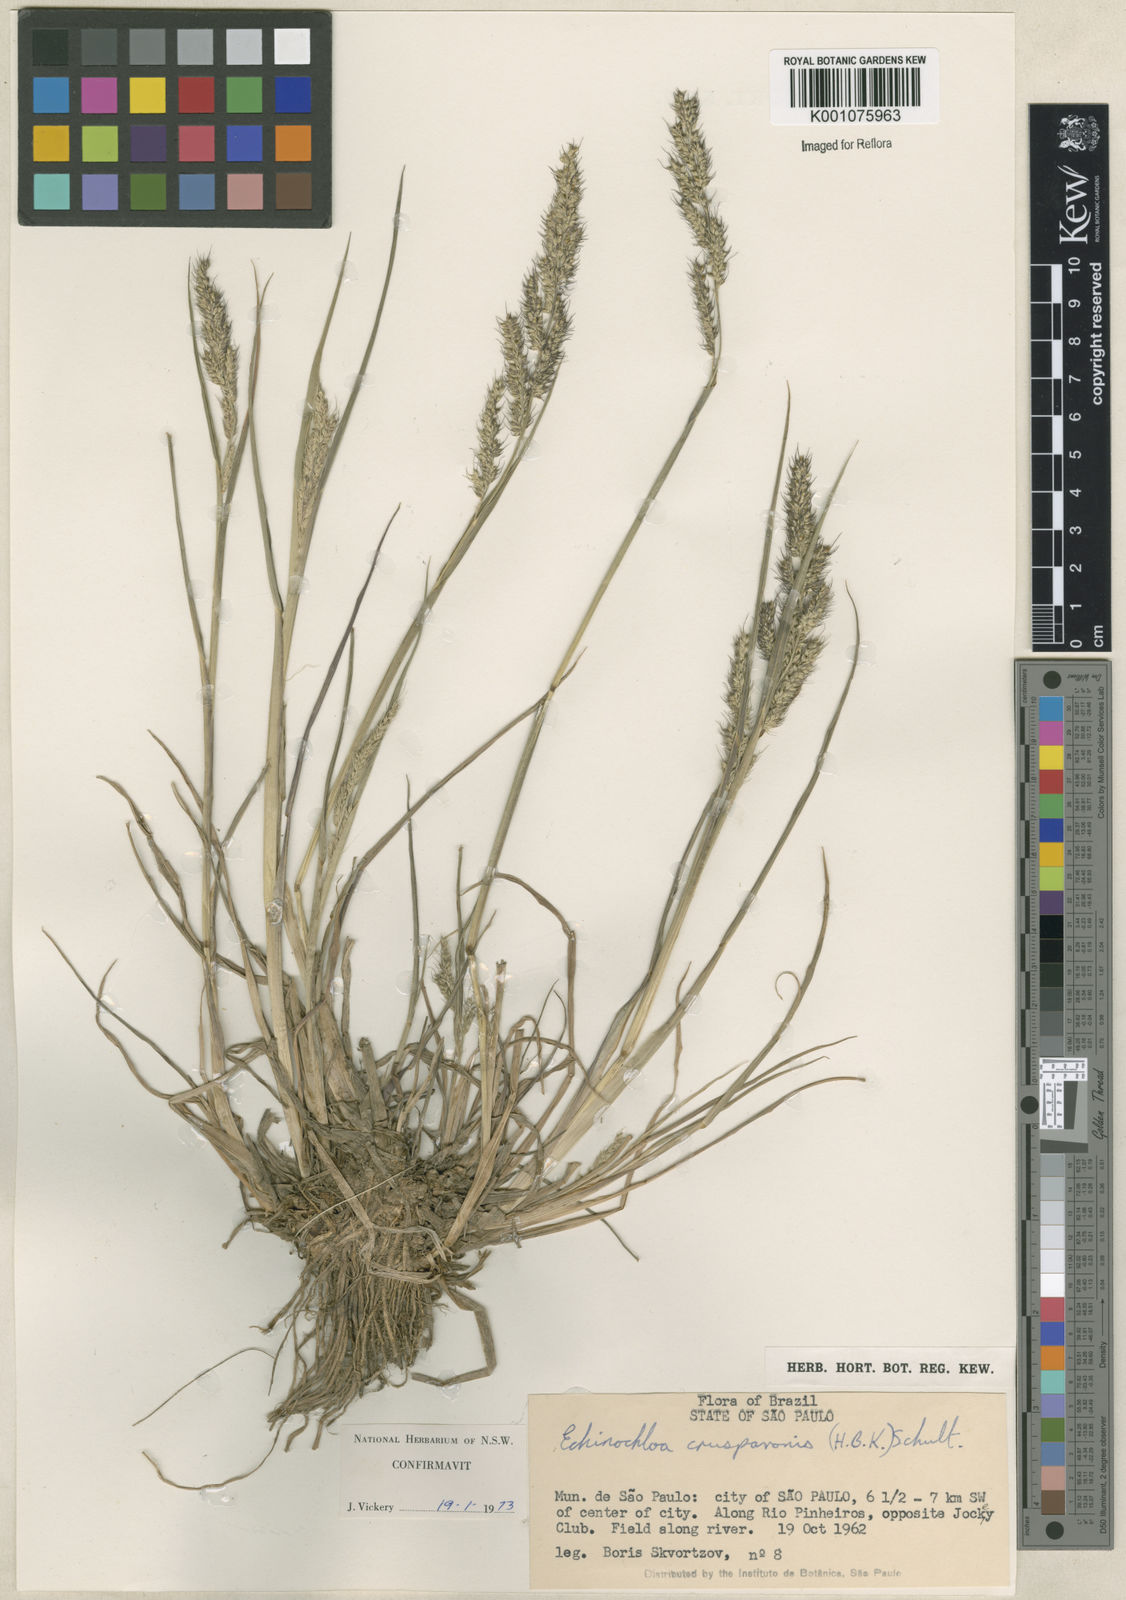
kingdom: Plantae
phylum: Tracheophyta
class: Liliopsida
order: Poales
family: Poaceae
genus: Echinochloa
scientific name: Echinochloa crus-pavonis
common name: Gulf cockspur grass
